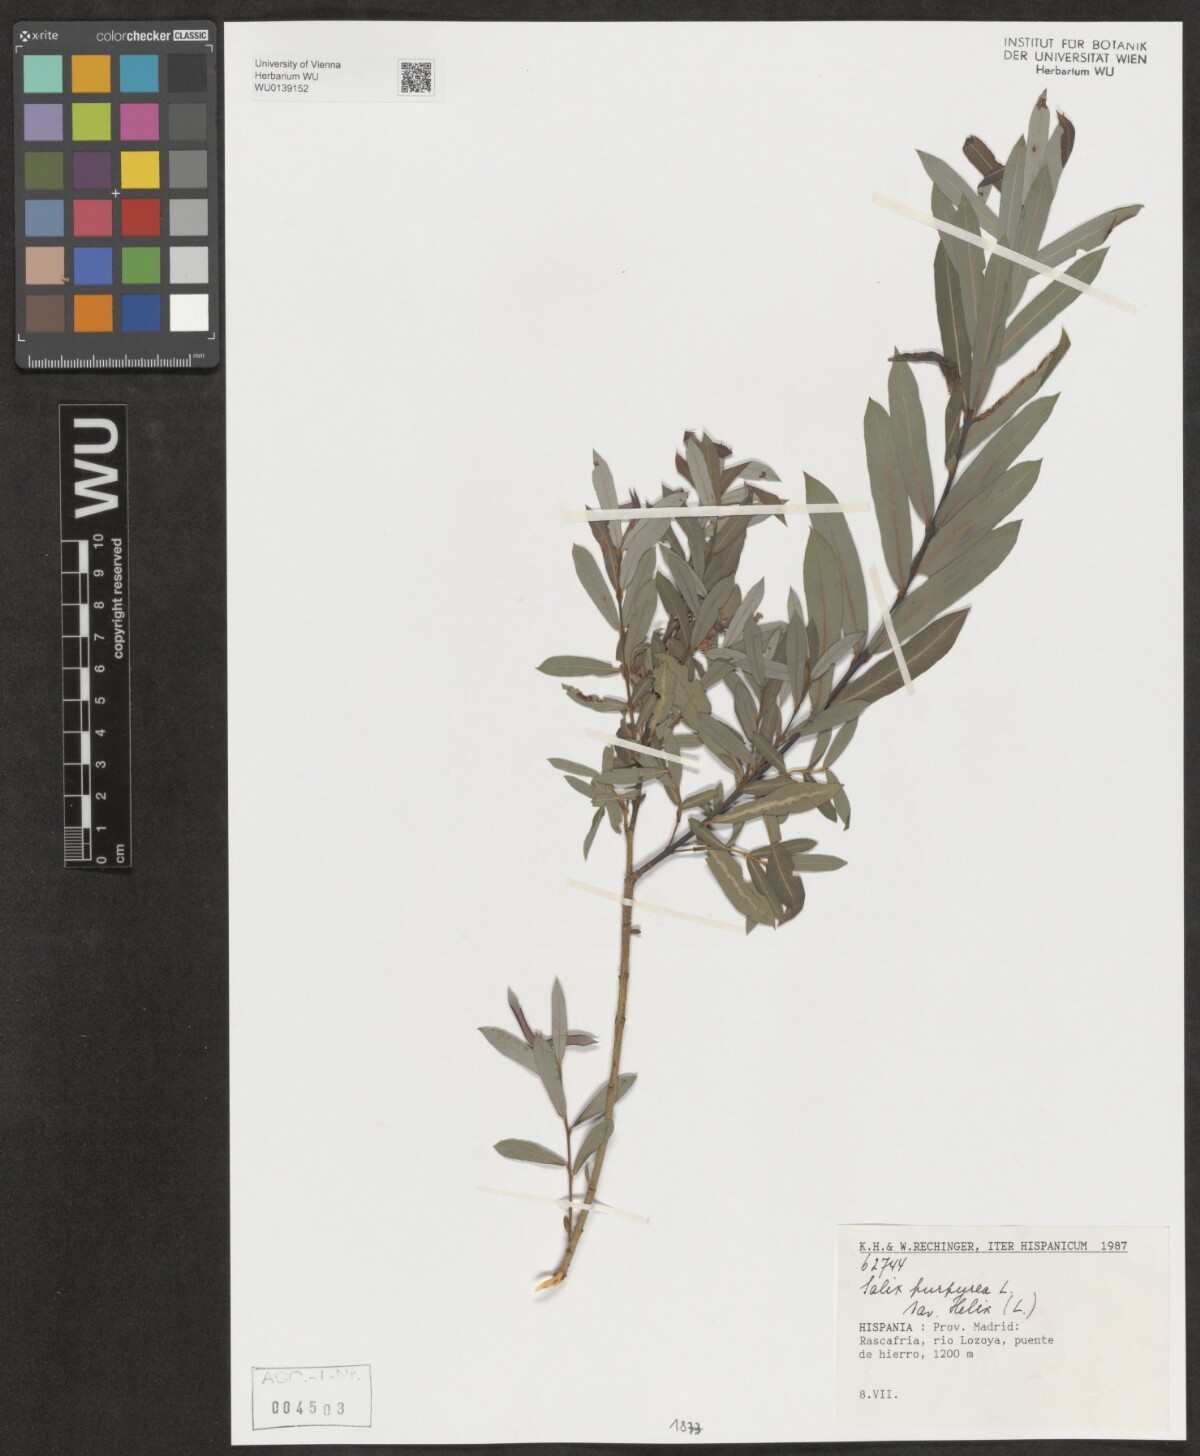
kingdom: Plantae
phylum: Tracheophyta
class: Magnoliopsida
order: Malpighiales
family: Salicaceae
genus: Salix
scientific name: Salix purpurea
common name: Purple willow
